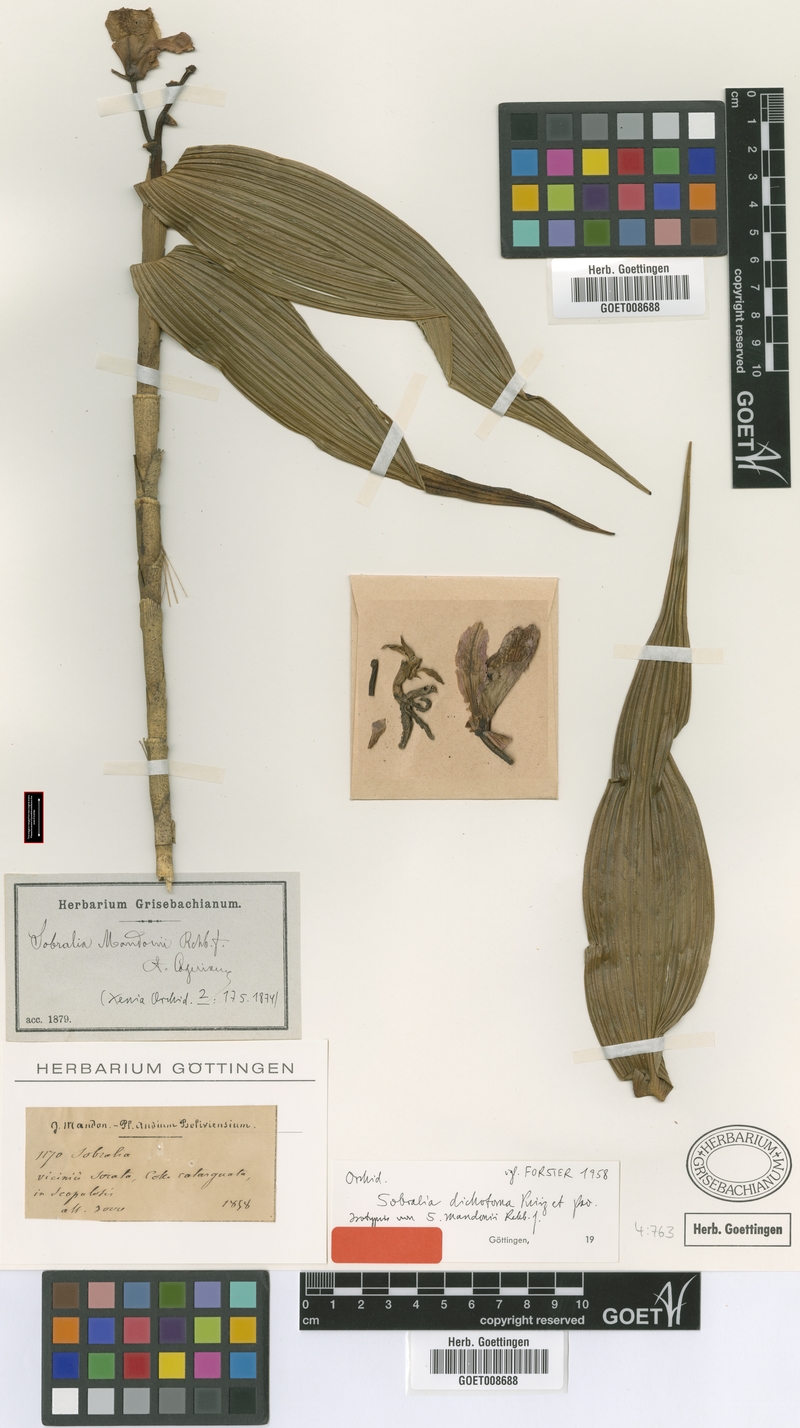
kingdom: Plantae
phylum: Tracheophyta
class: Liliopsida
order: Asparagales
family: Orchidaceae
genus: Sobralia
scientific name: Sobralia dichotoma
